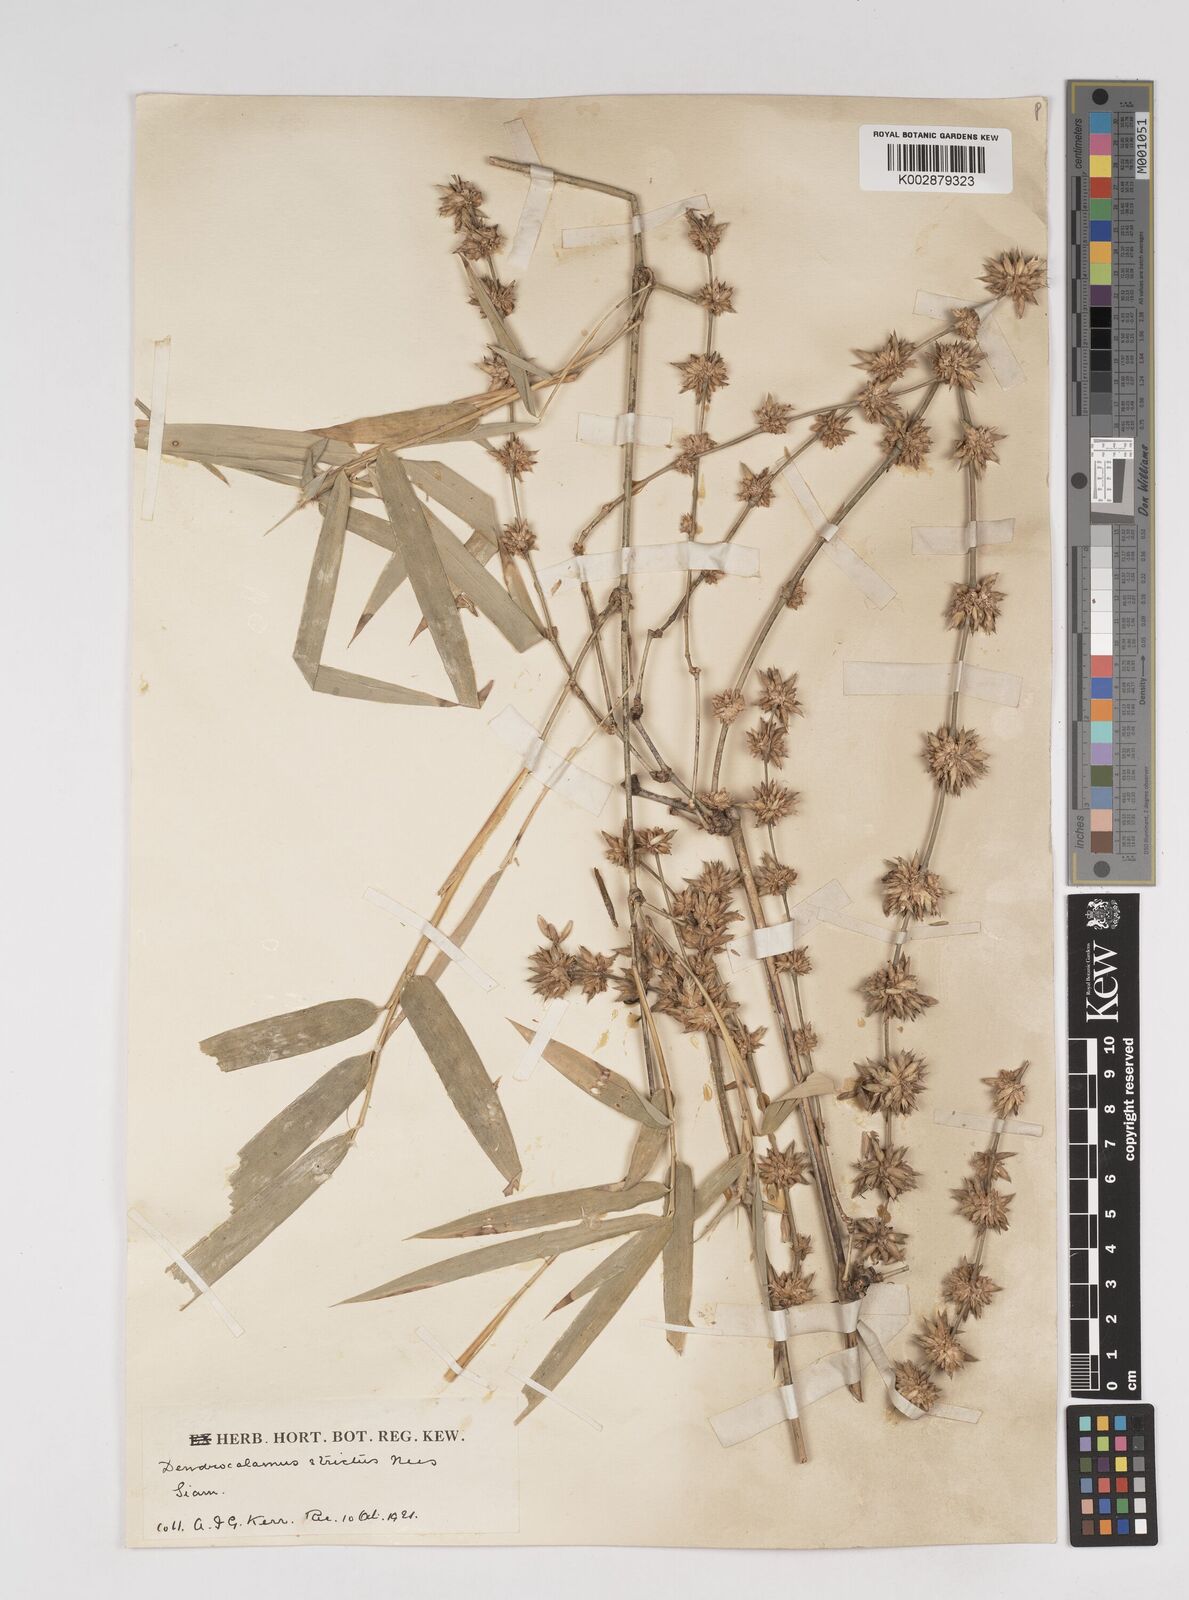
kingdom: Plantae
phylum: Tracheophyta
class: Liliopsida
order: Poales
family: Poaceae
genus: Dendrocalamus
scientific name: Dendrocalamus membranaceus
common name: White bamboo
